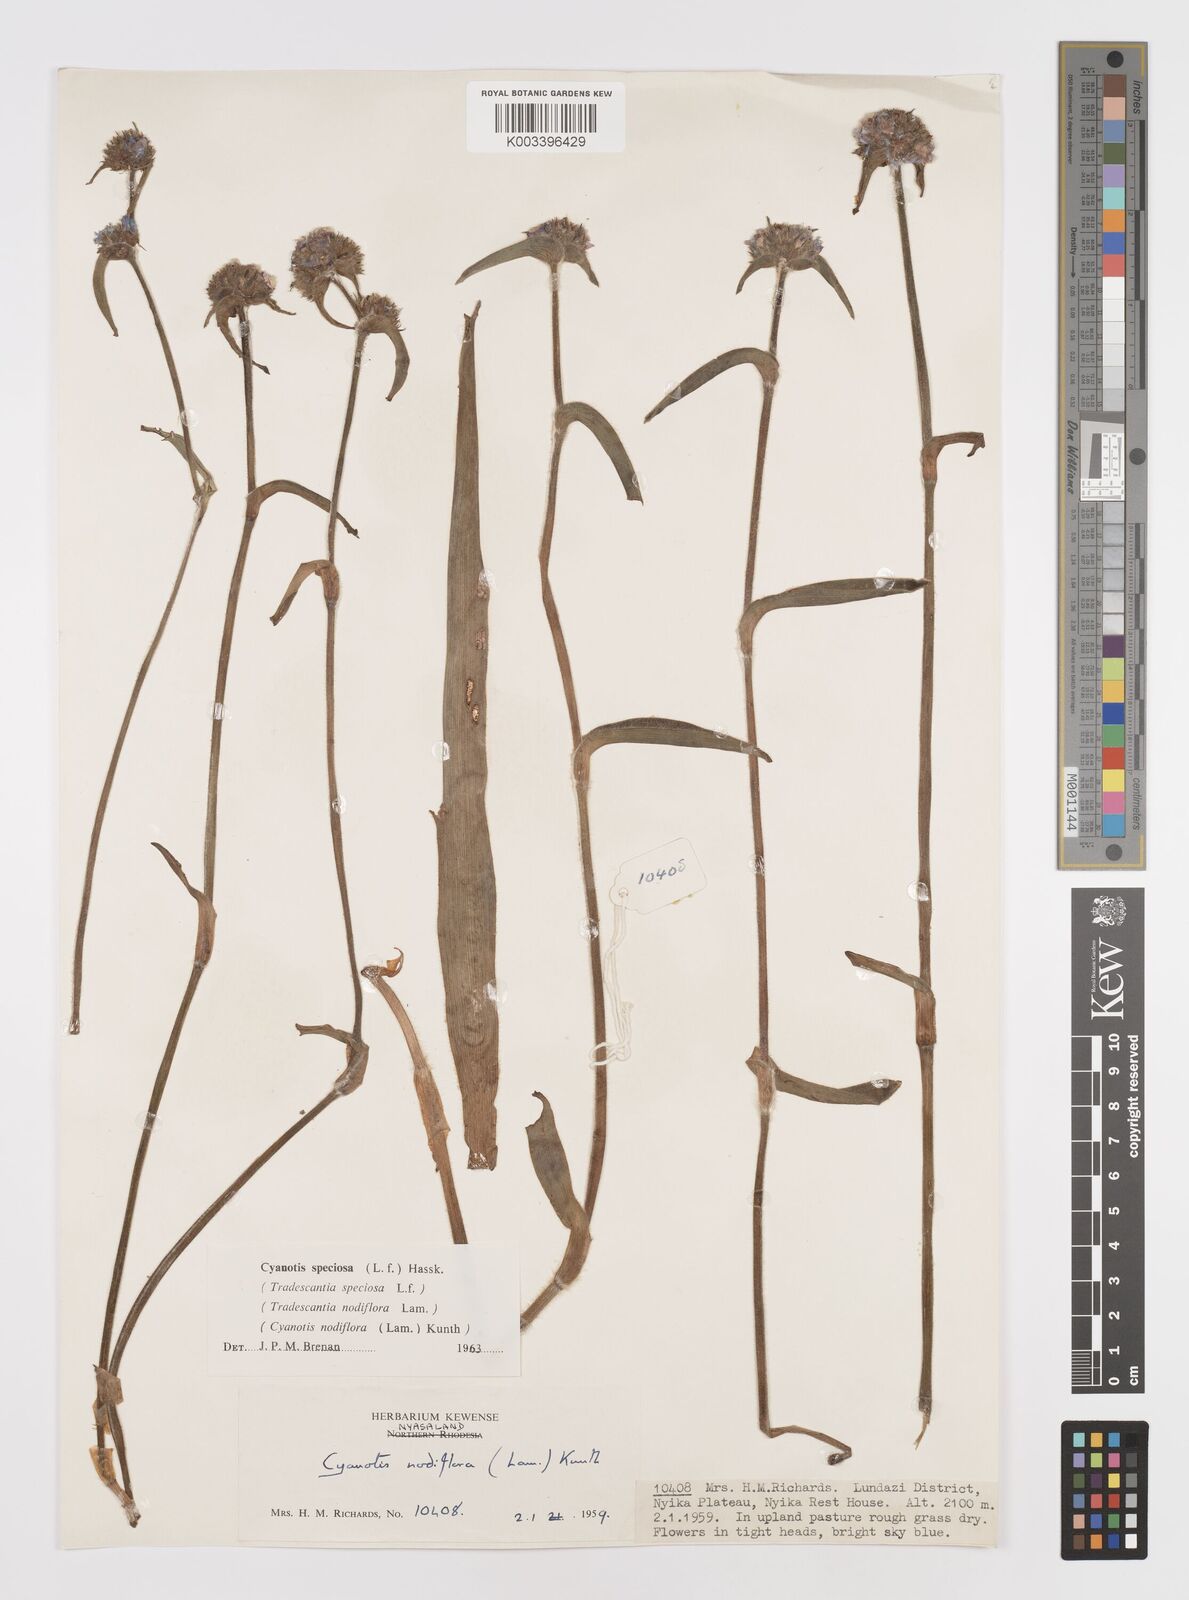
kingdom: Plantae
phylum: Tracheophyta
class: Liliopsida
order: Commelinales
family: Commelinaceae
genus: Cyanotis
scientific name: Cyanotis speciosa
